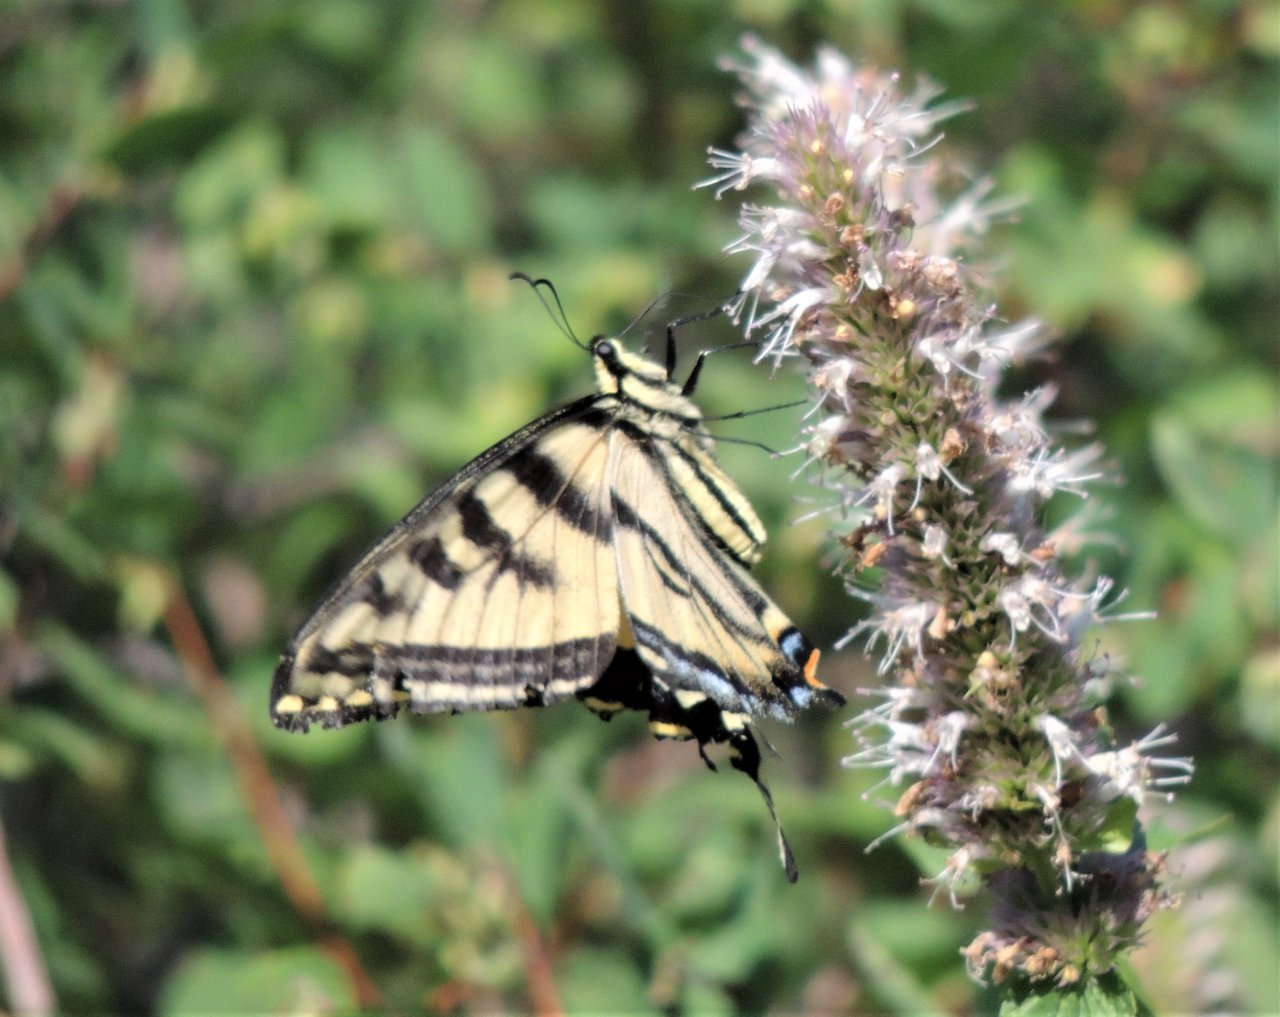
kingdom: Animalia
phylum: Arthropoda
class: Insecta
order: Lepidoptera
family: Papilionidae
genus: Pterourus
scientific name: Pterourus rutulus
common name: Western Tiger Swallowtail
